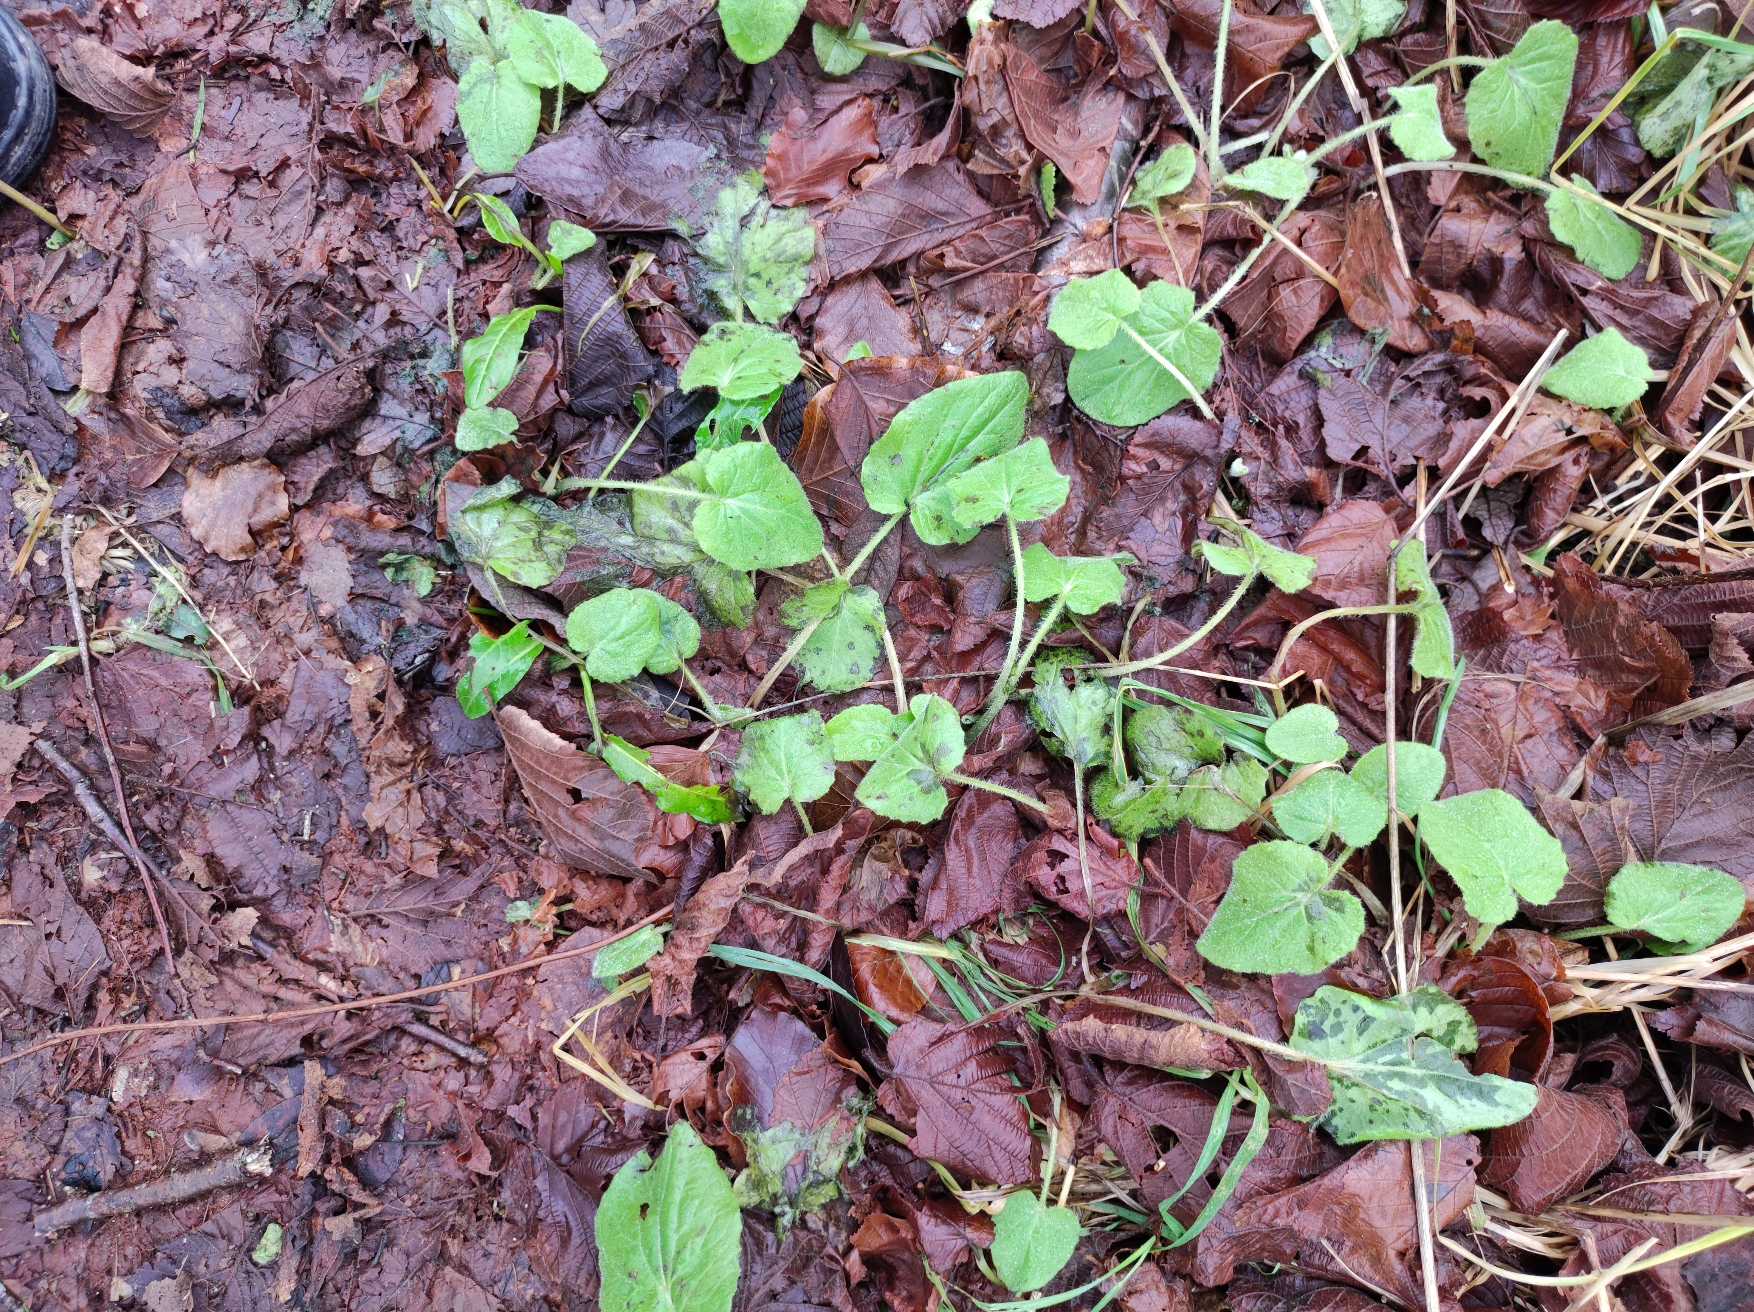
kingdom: Plantae
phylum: Tracheophyta
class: Magnoliopsida
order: Asterales
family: Asteraceae
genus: Doronicum
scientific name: Doronicum pardalianches
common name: Hjertebladet gemserod
